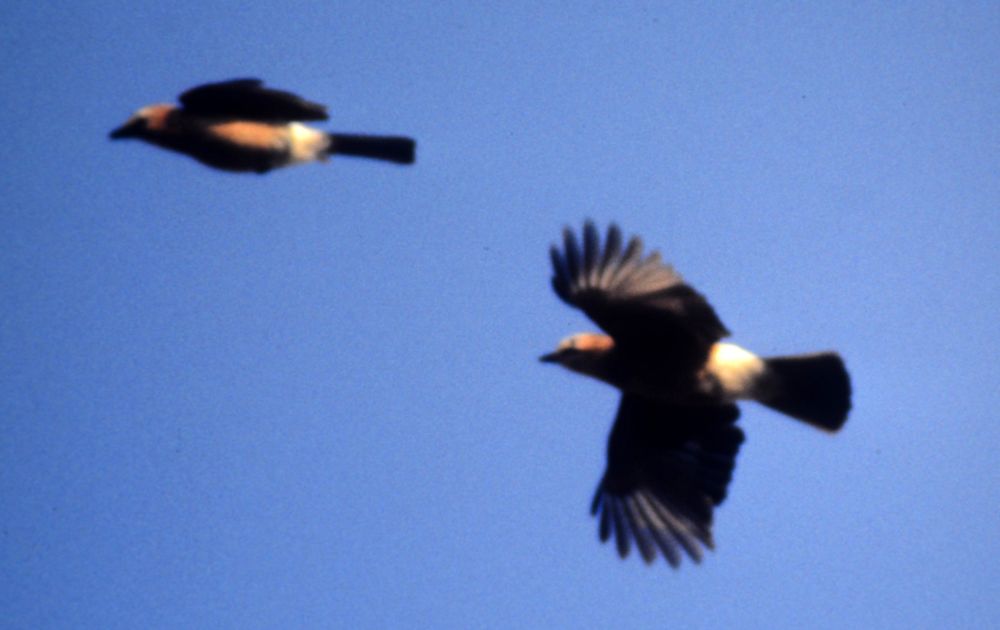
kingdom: Animalia
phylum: Chordata
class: Aves
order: Passeriformes
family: Corvidae
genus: Garrulus
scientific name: Garrulus glandarius
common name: Eurasian jay
